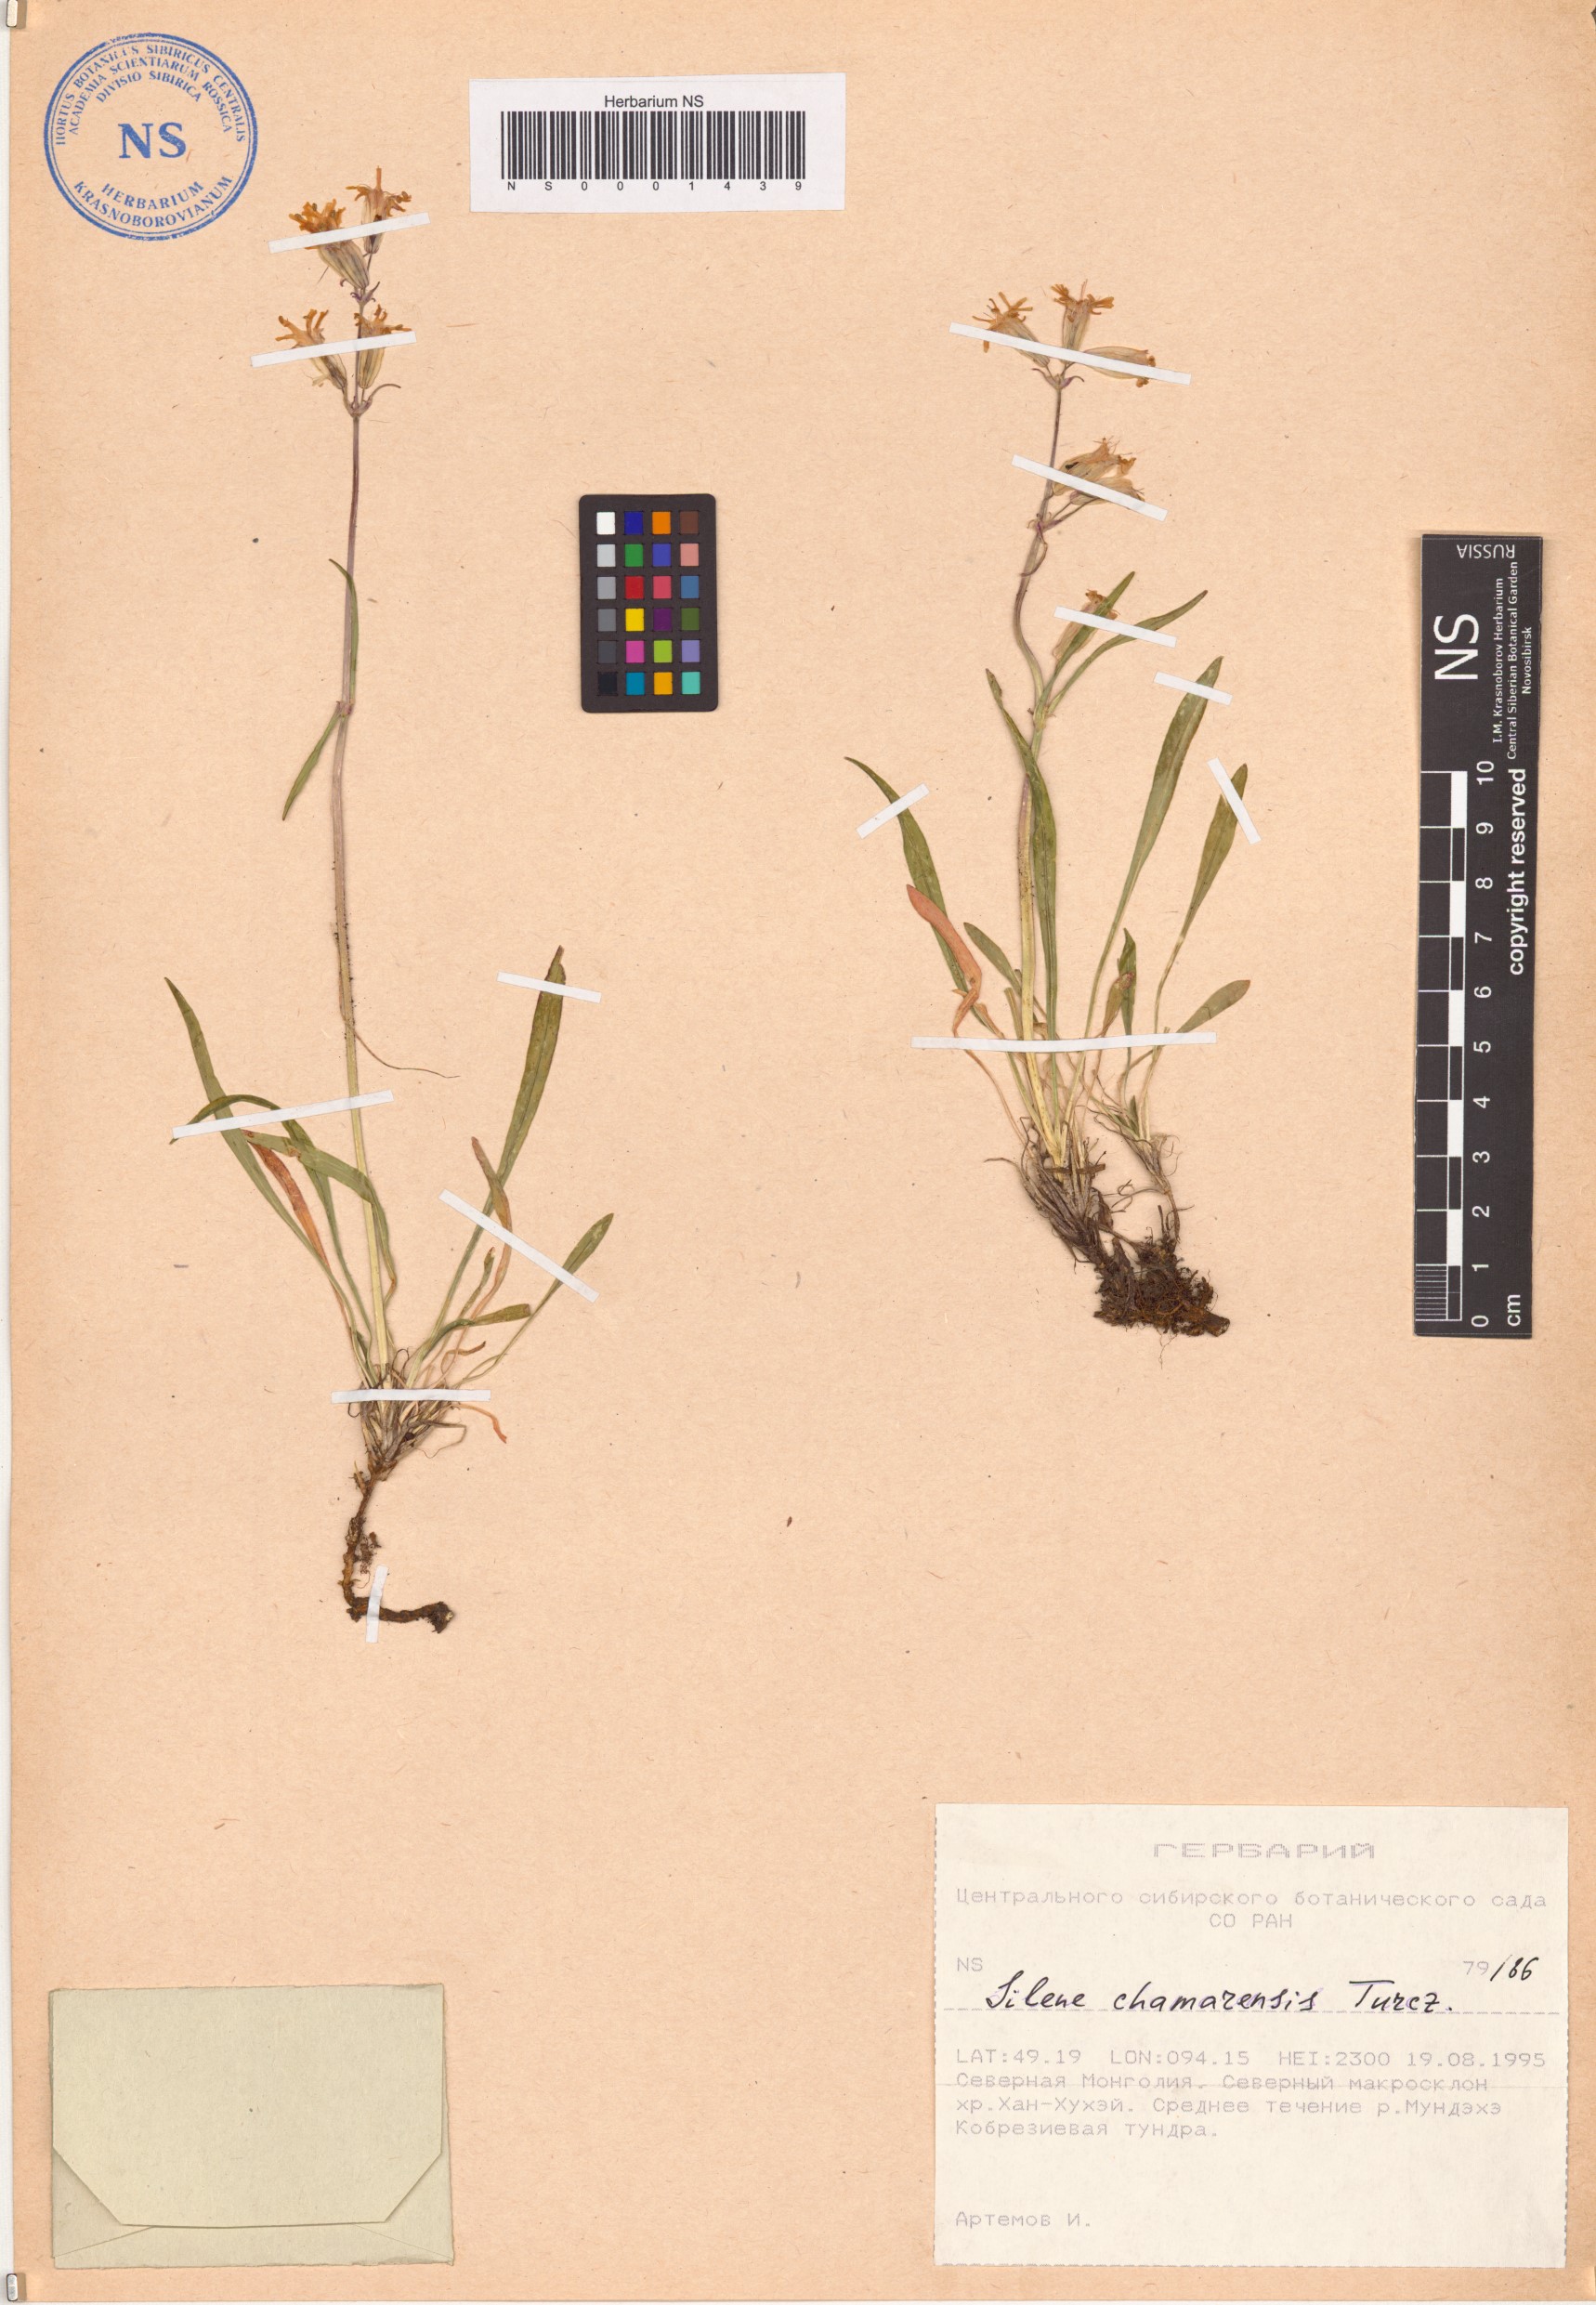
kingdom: Plantae
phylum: Tracheophyta
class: Magnoliopsida
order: Caryophyllales
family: Caryophyllaceae
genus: Silene
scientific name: Silene chamarensis
